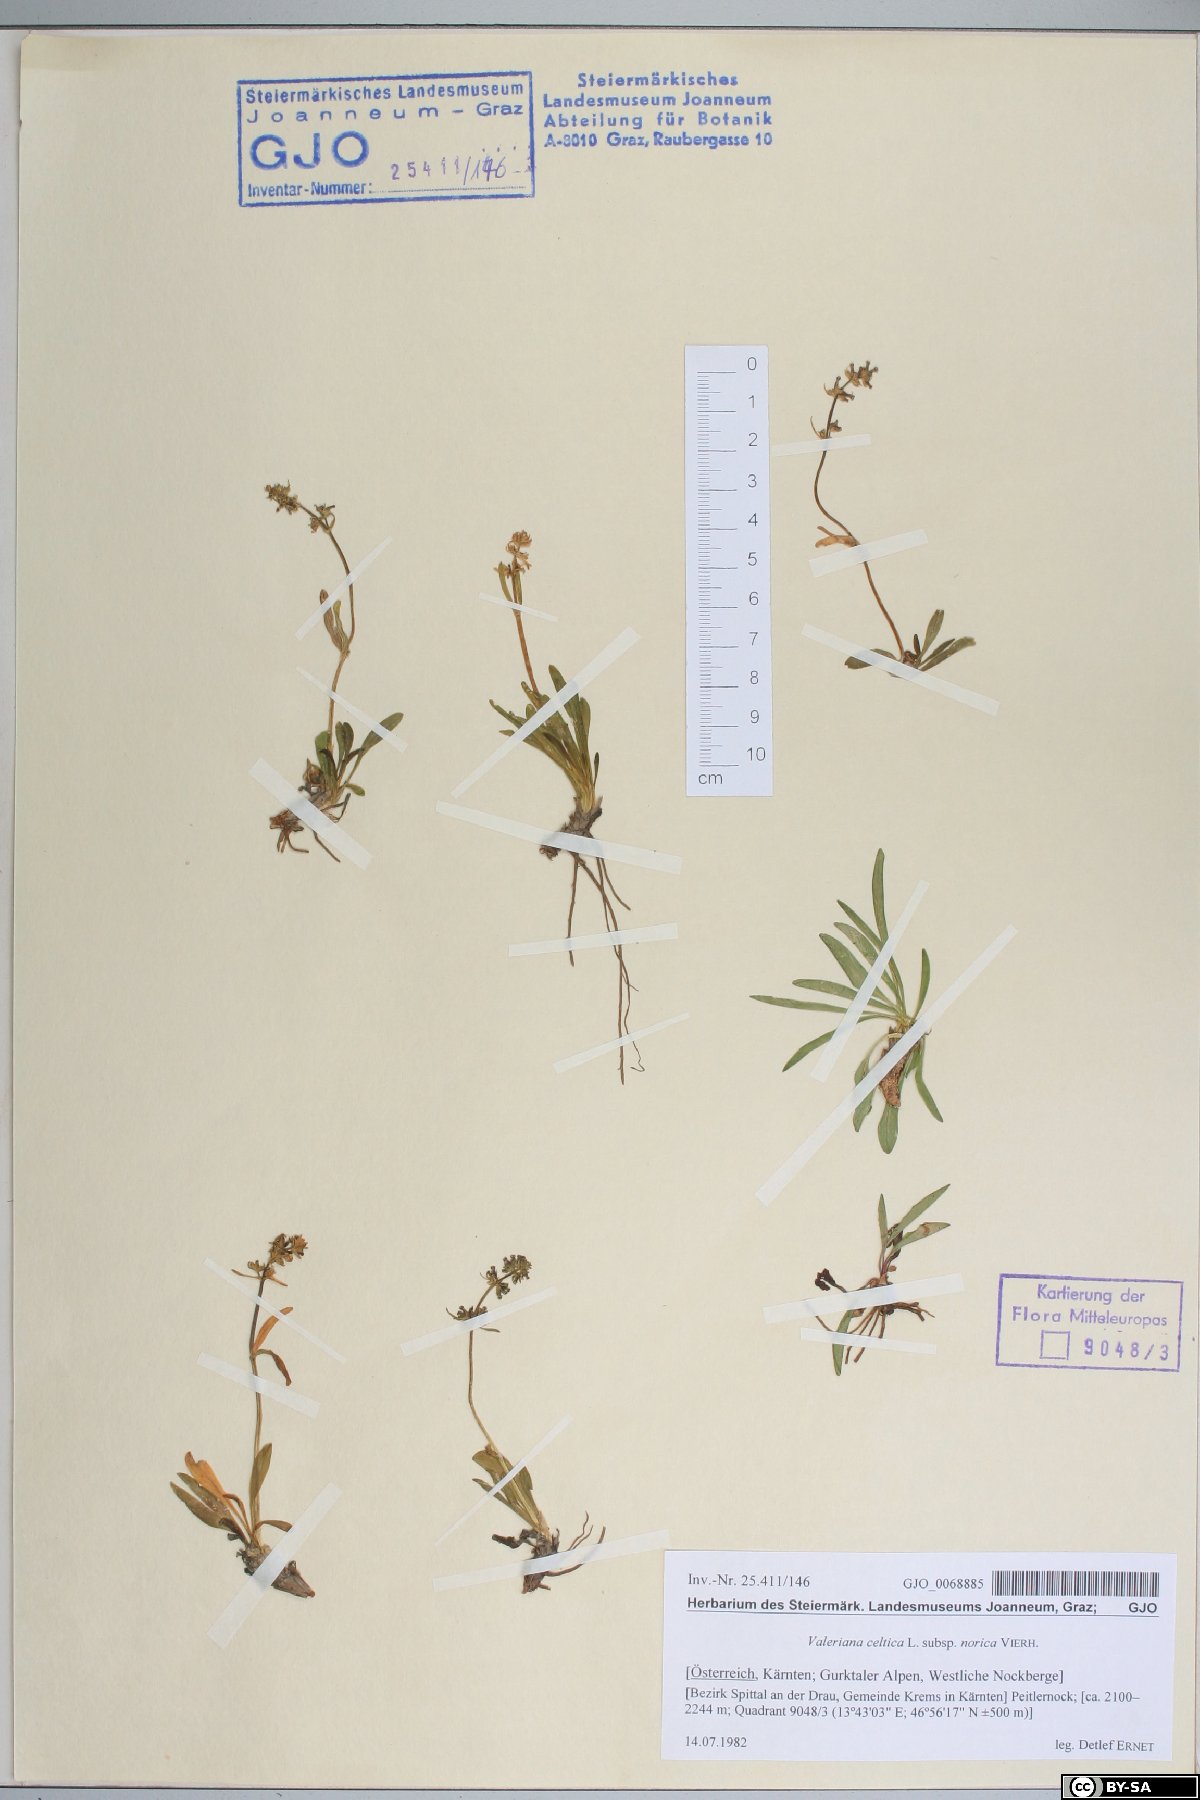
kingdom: Plantae
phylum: Tracheophyta
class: Magnoliopsida
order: Dipsacales
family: Caprifoliaceae
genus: Valeriana
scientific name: Valeriana celtica
